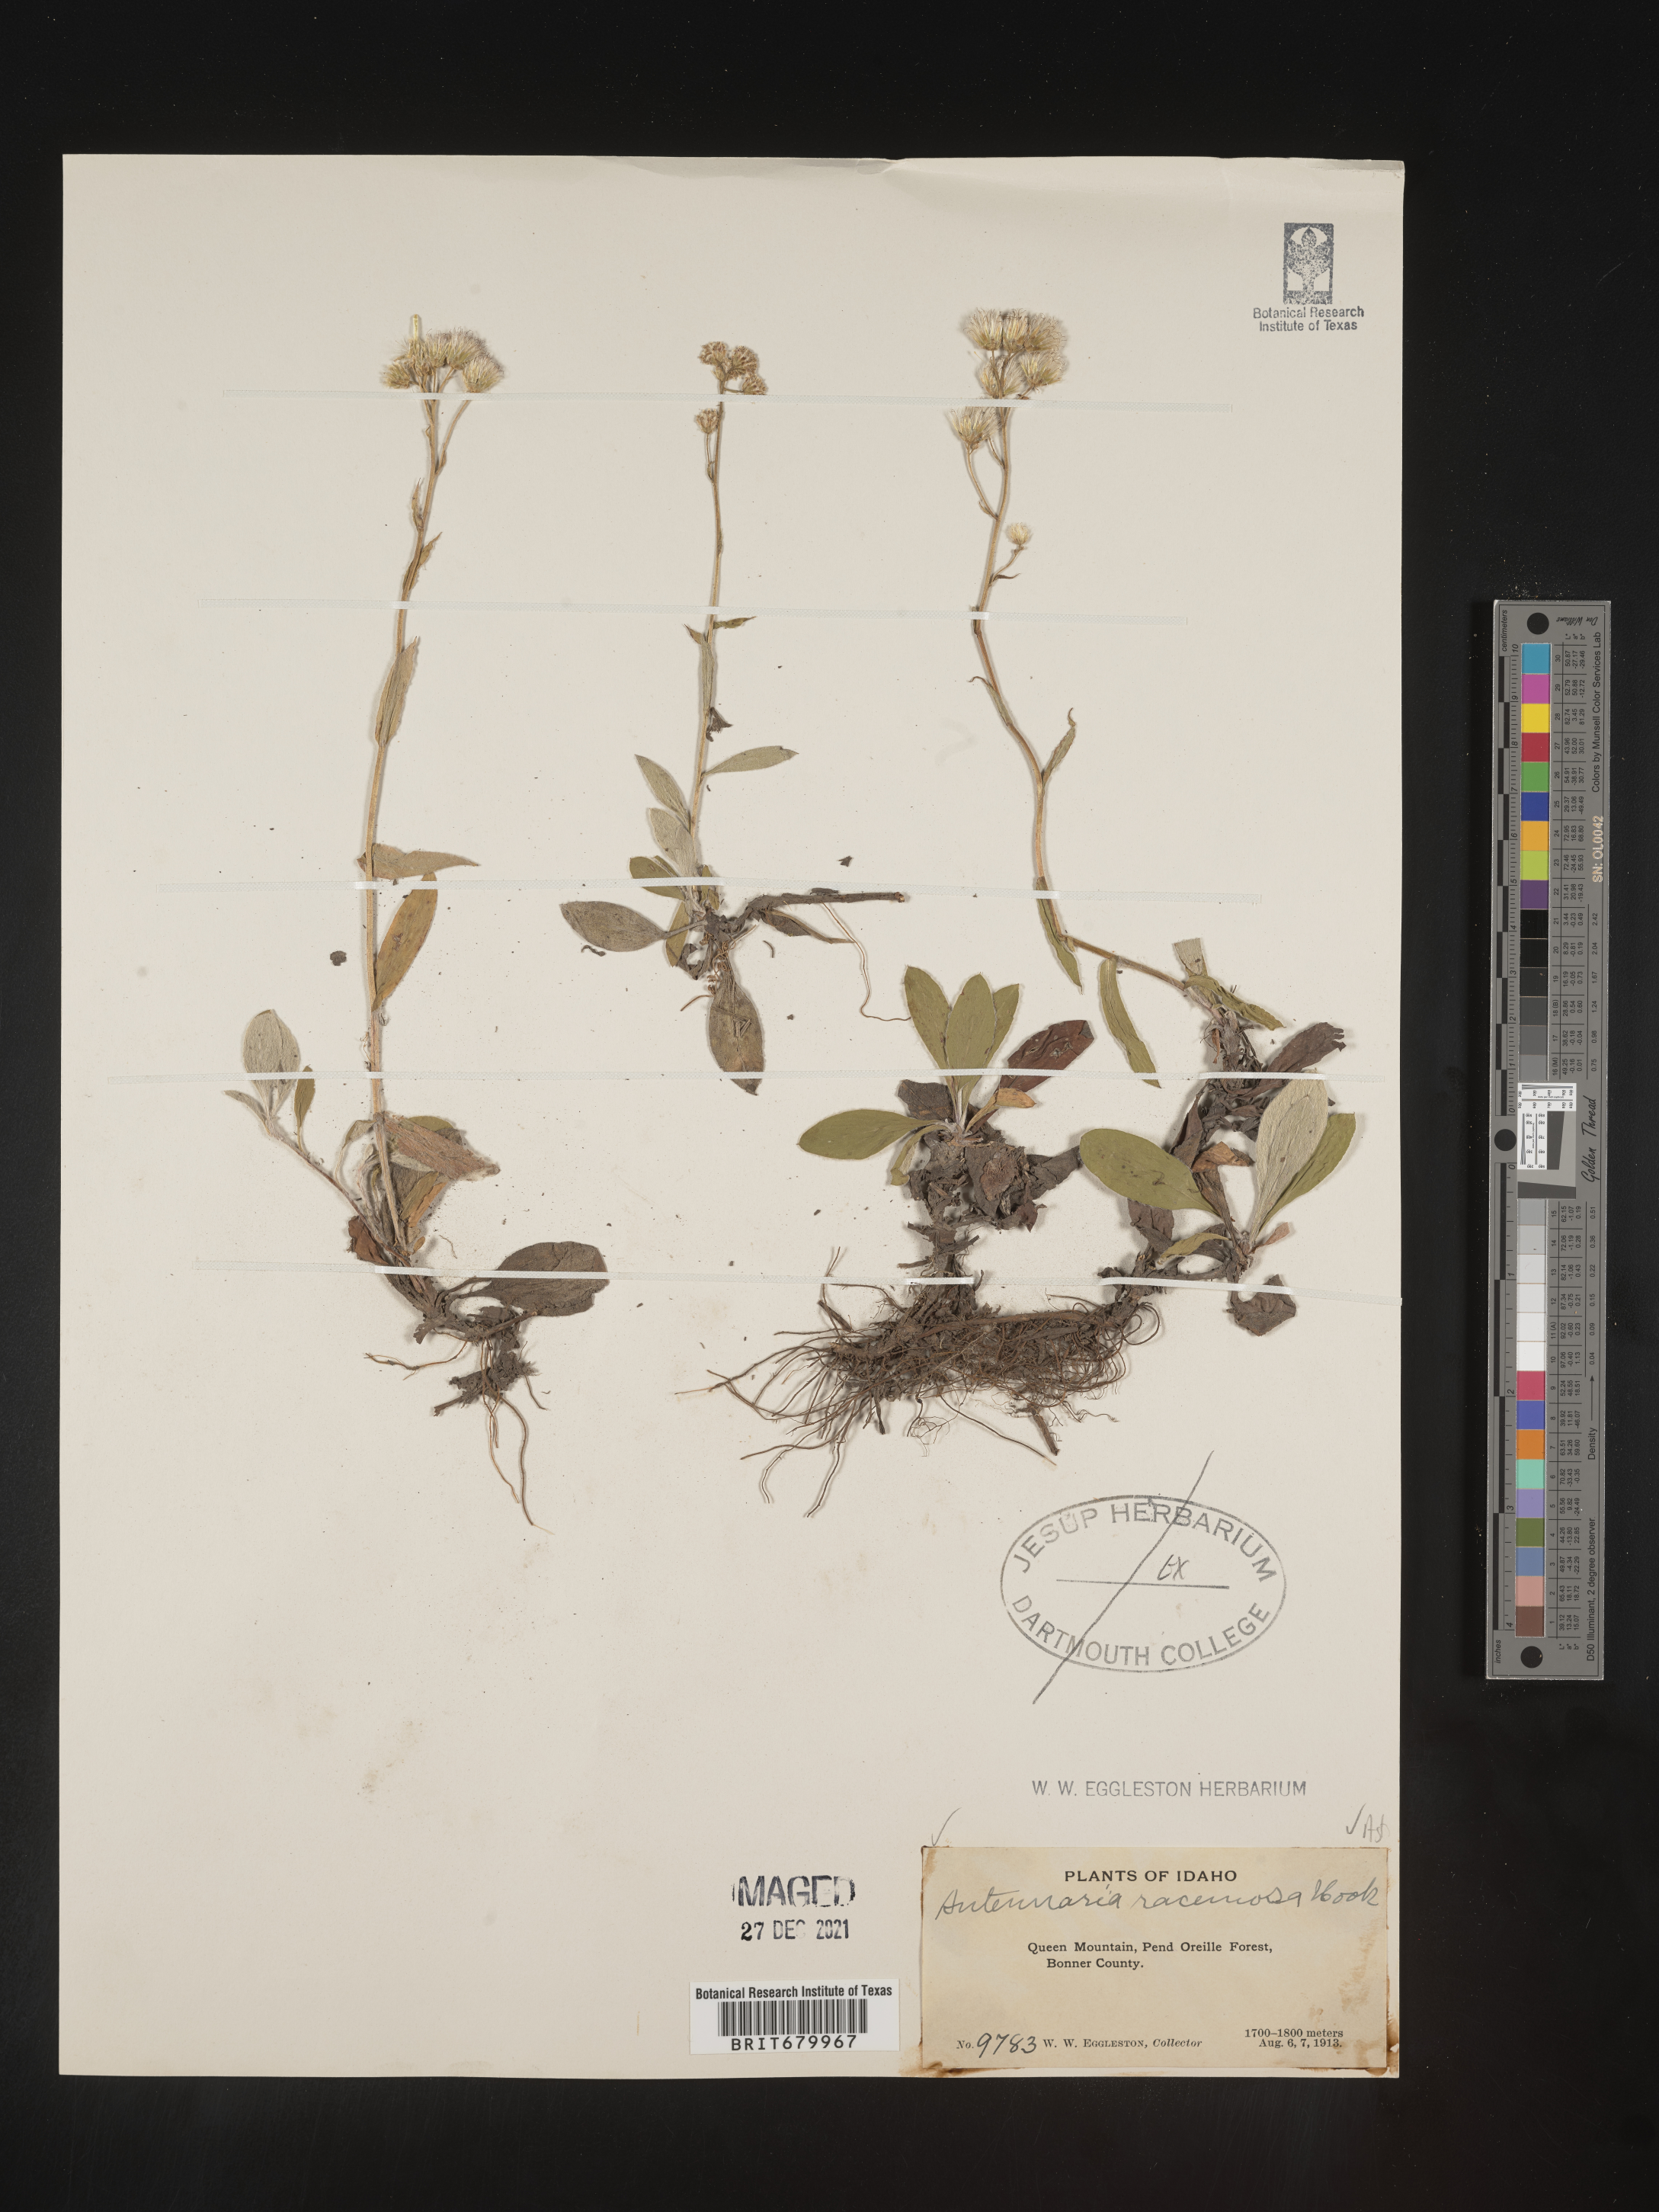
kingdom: Plantae
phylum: Tracheophyta
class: Magnoliopsida
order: Asterales
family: Asteraceae
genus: Antennaria
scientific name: Antennaria racemosa
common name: Racemose pussytoes
